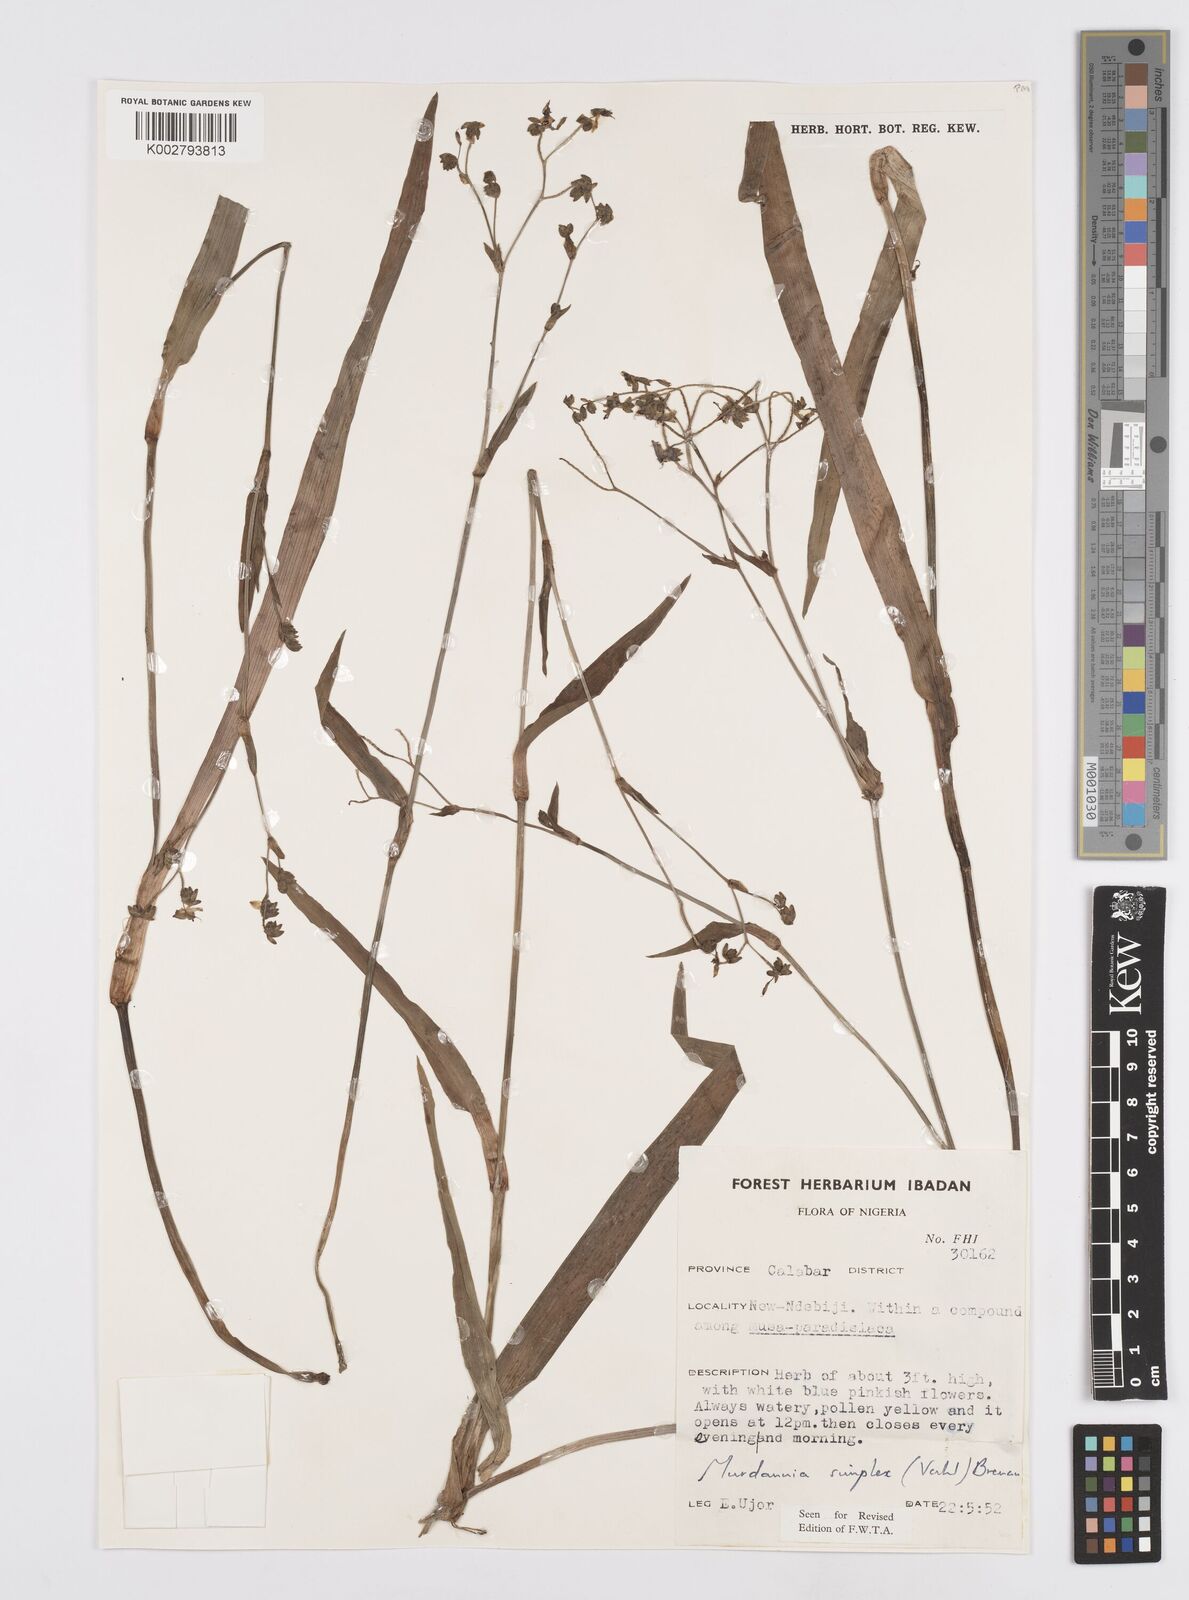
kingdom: Plantae
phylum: Tracheophyta
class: Liliopsida
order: Commelinales
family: Commelinaceae
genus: Murdannia
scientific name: Murdannia simplex
